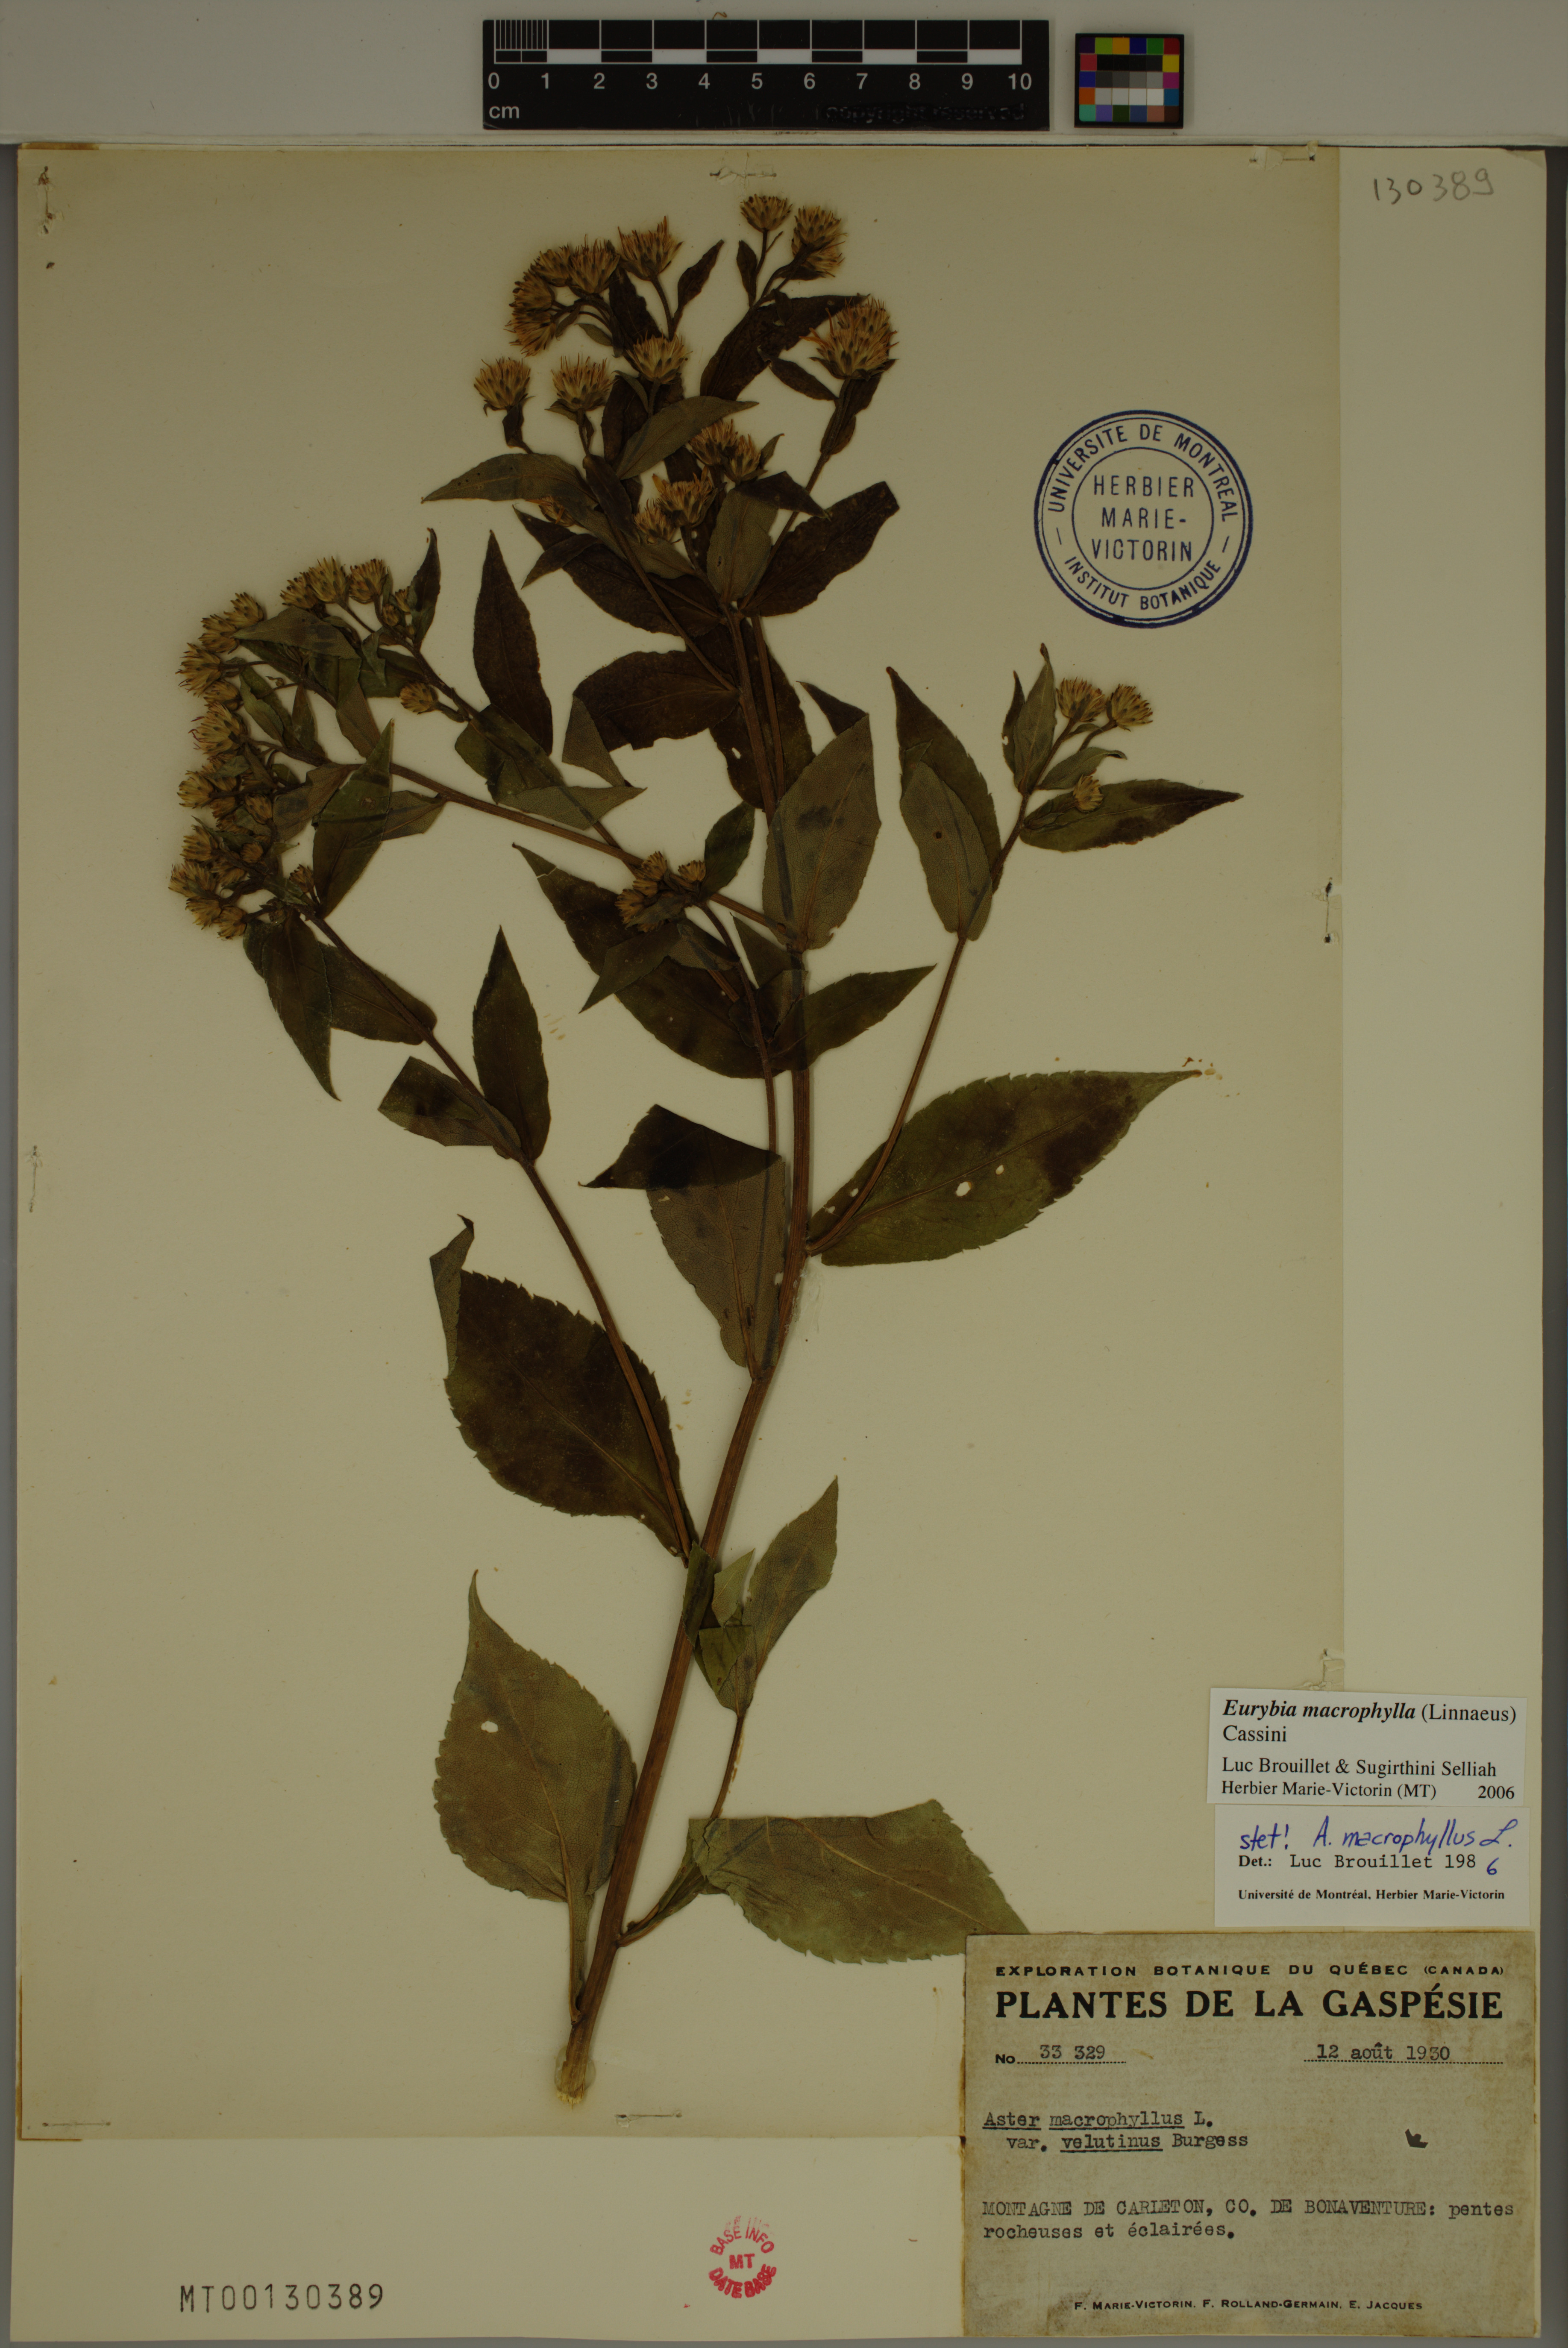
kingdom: Plantae
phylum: Tracheophyta
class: Magnoliopsida
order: Asterales
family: Asteraceae
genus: Eurybia
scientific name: Eurybia macrophylla
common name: Big-leaved aster
